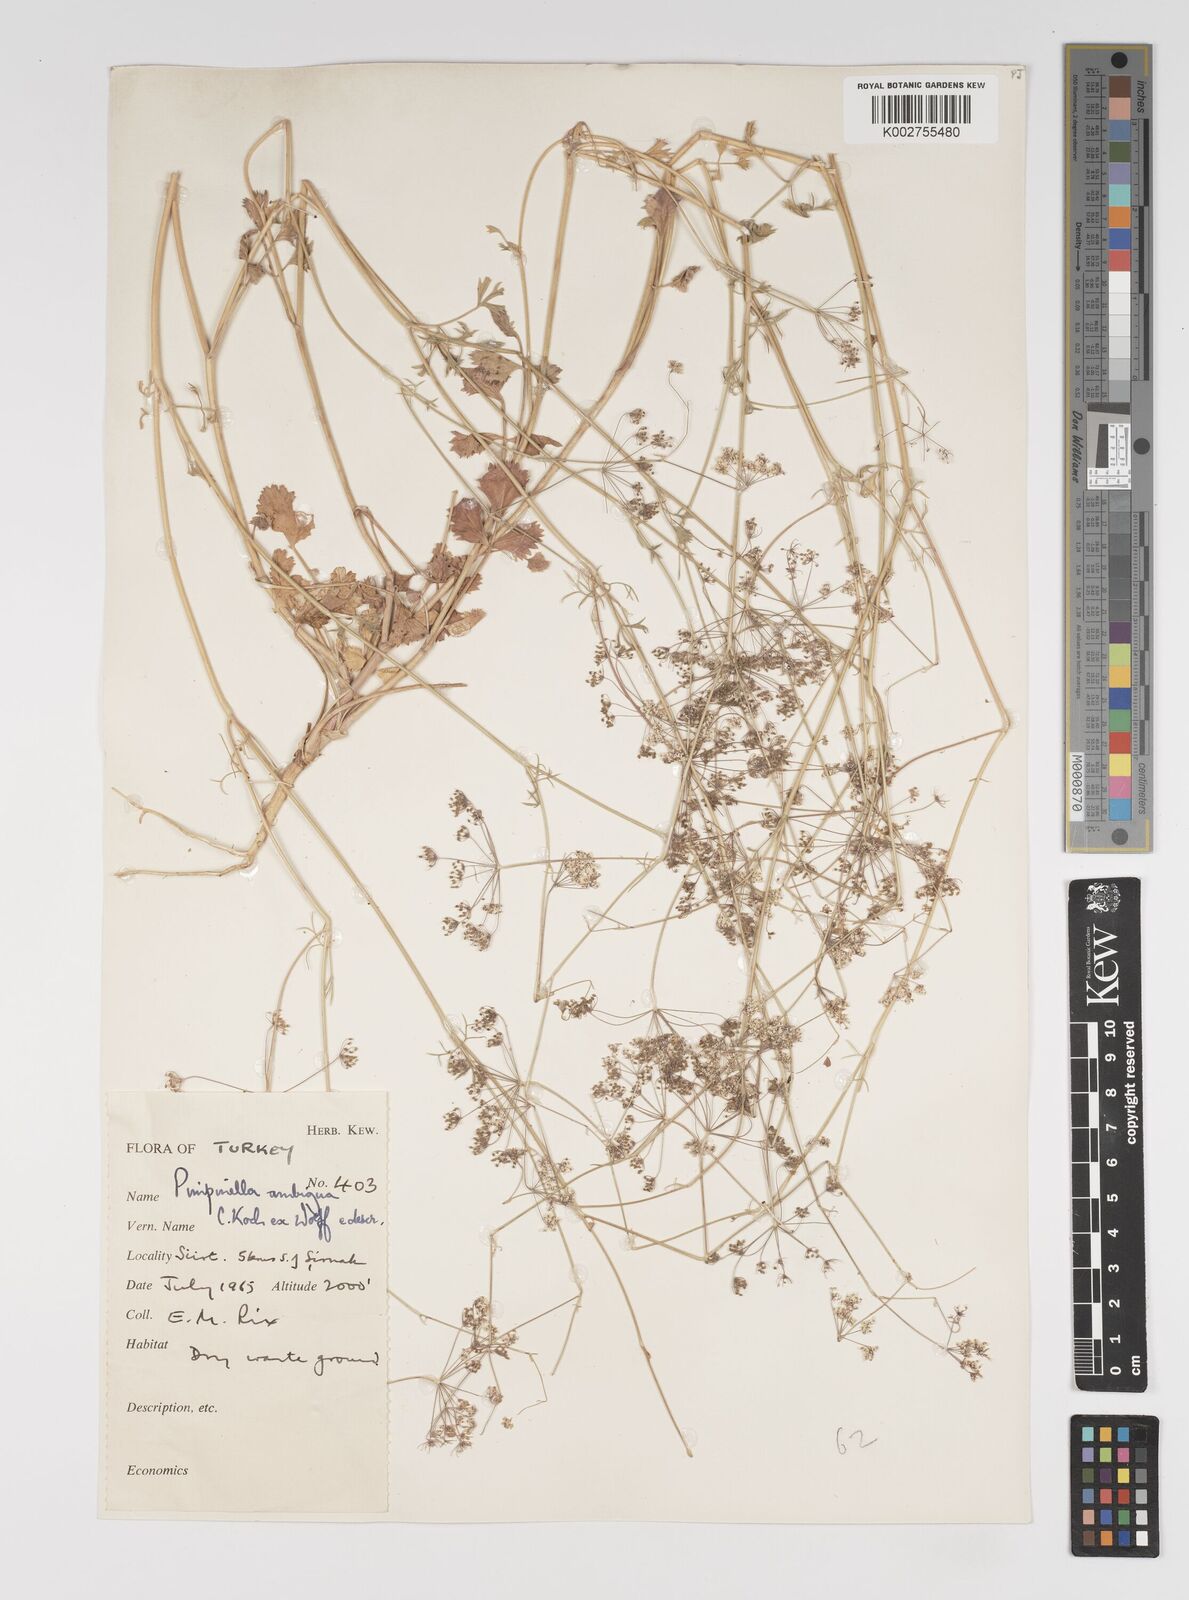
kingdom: Plantae
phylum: Tracheophyta
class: Magnoliopsida
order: Apiales
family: Apiaceae
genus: Pimpinella
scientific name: Pimpinella affinis
